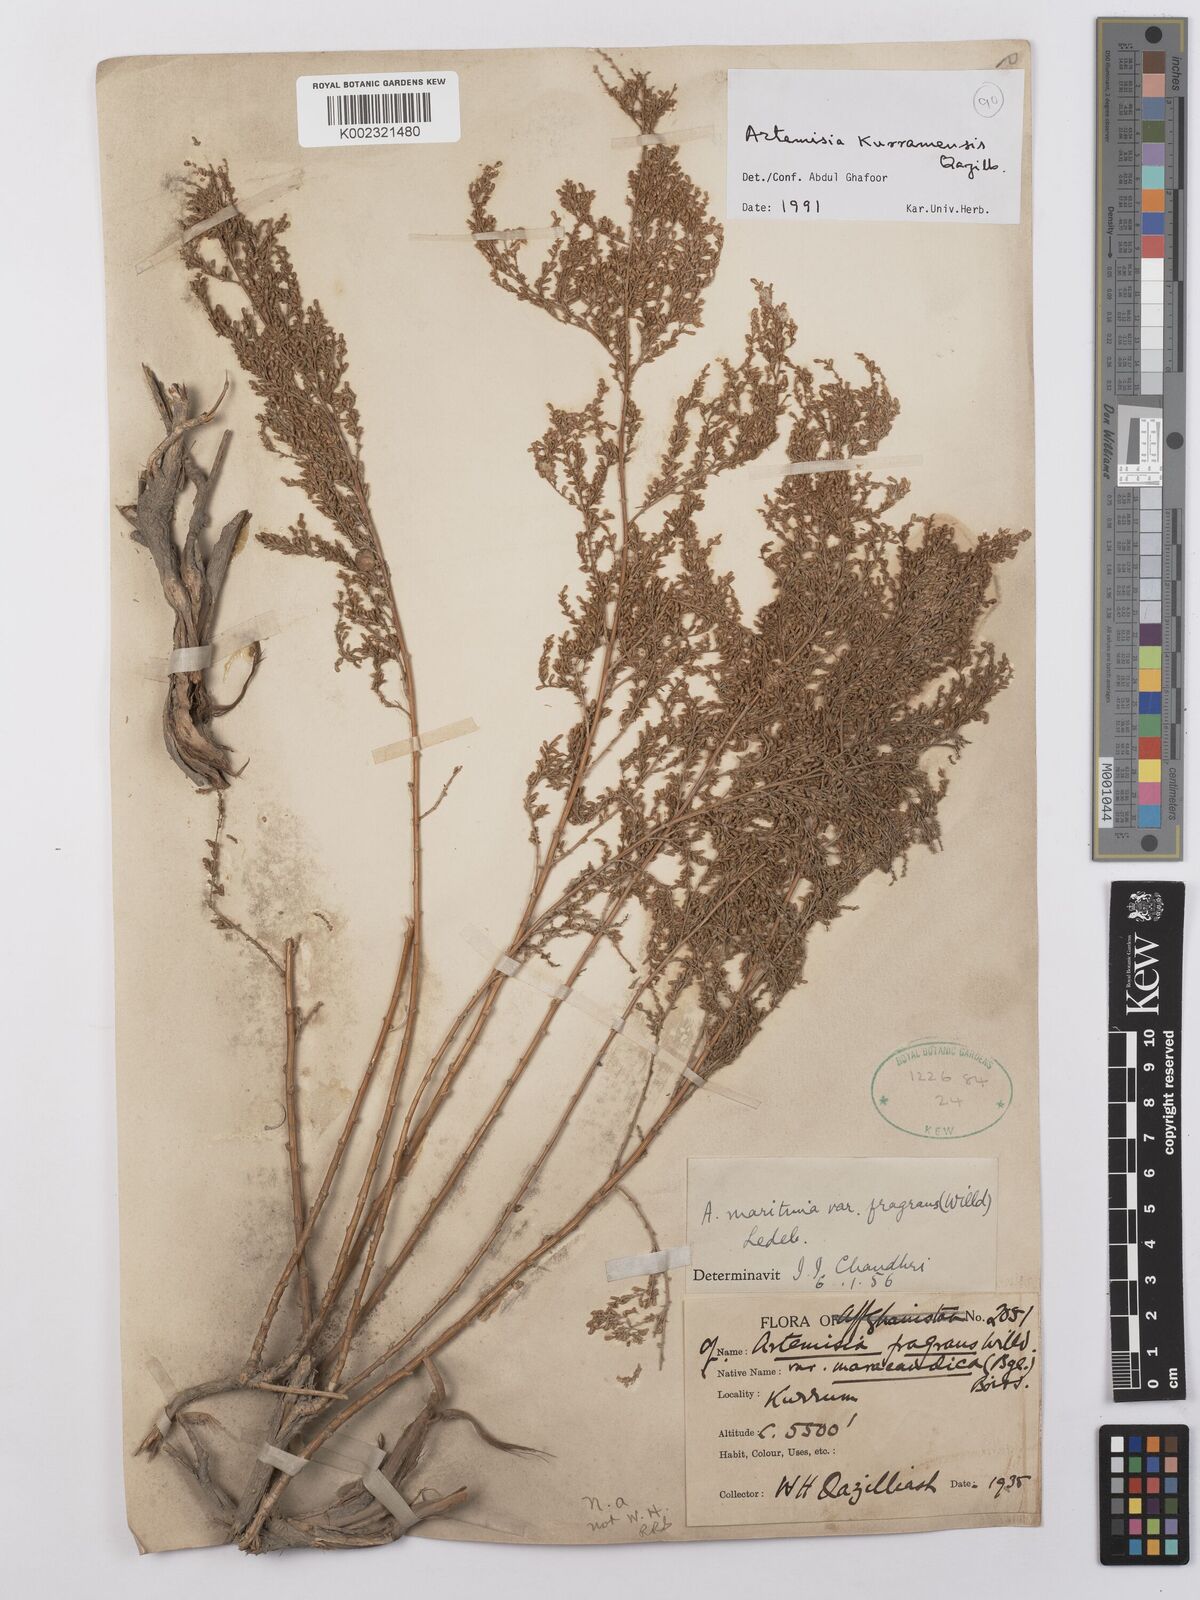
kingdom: Plantae
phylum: Tracheophyta
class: Magnoliopsida
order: Asterales
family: Asteraceae
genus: Artemisia
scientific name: Artemisia kurramensis
